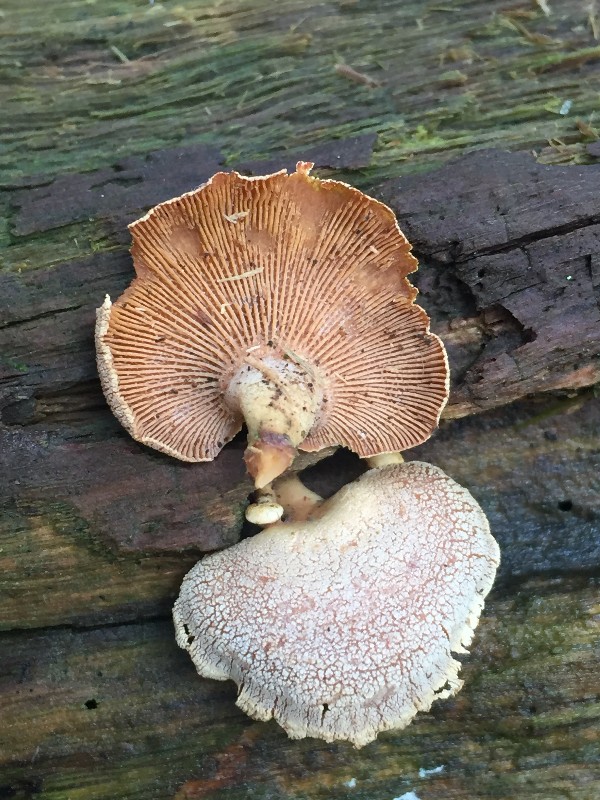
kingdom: Fungi
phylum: Basidiomycota
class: Agaricomycetes
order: Agaricales
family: Mycenaceae
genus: Panellus
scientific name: Panellus stipticus
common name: kliddet epaulethat
